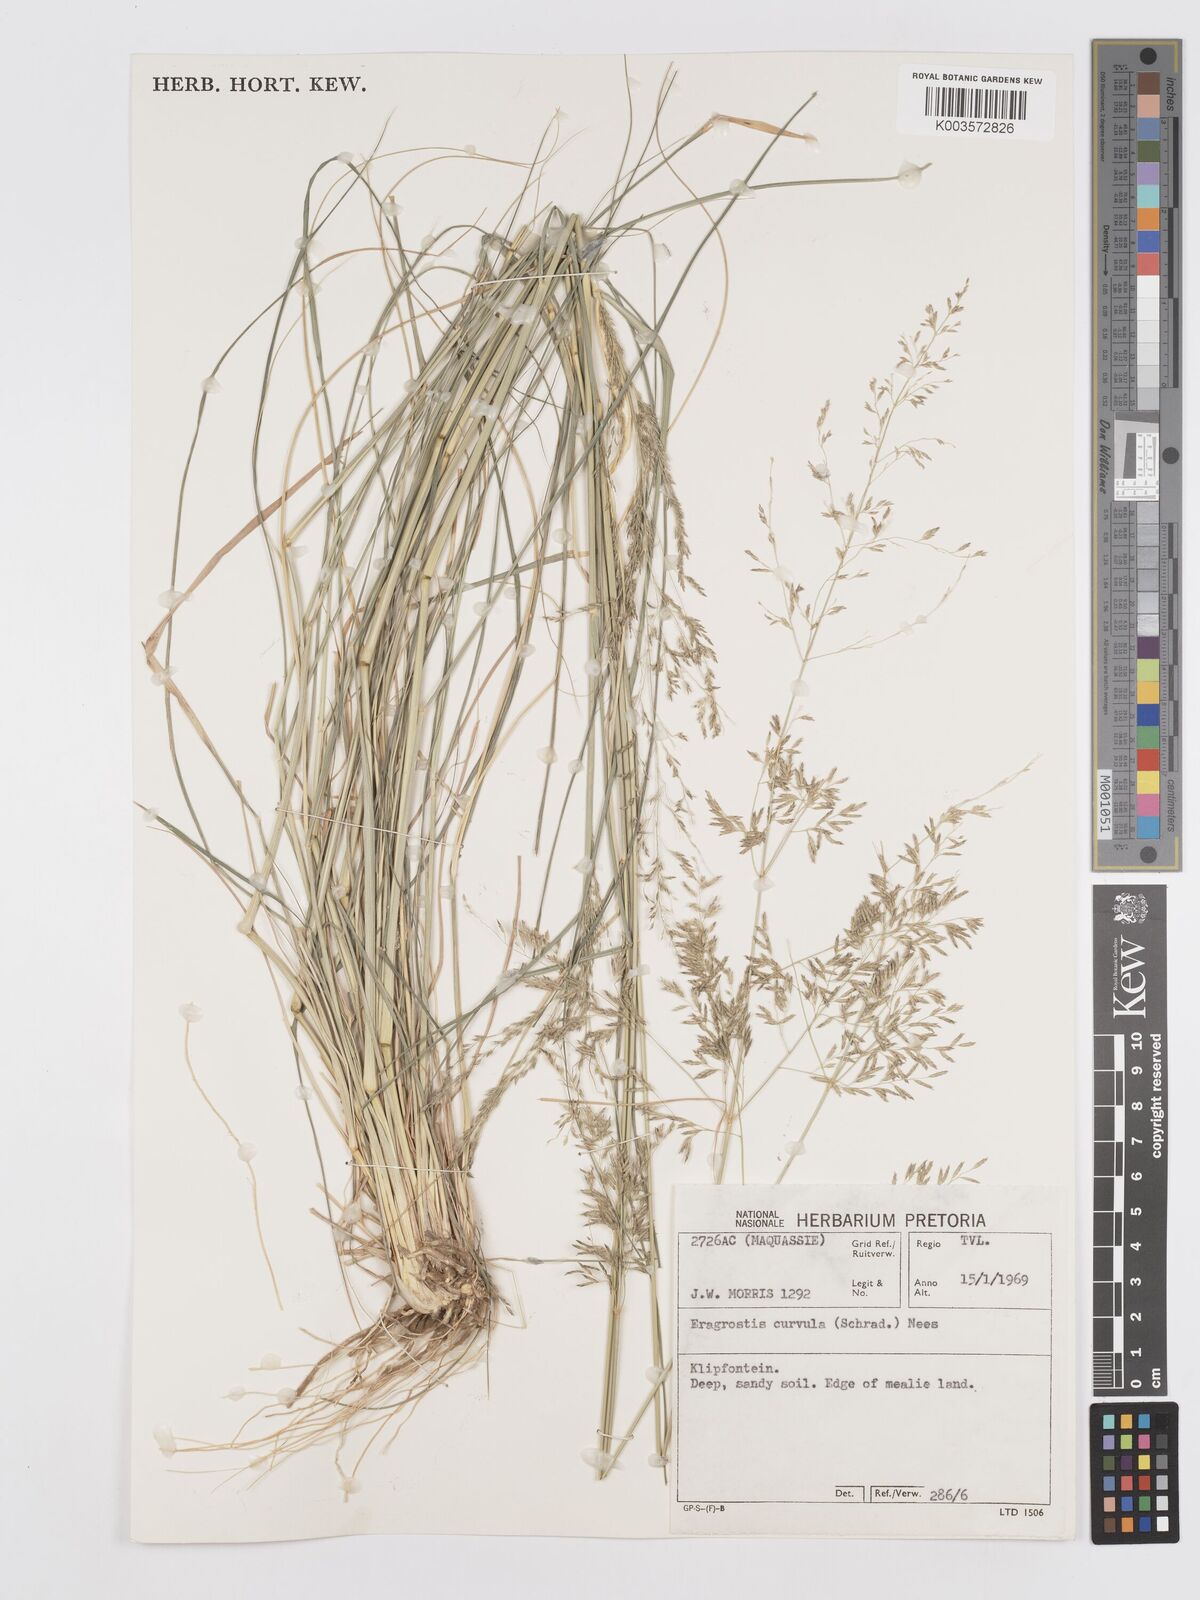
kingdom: Plantae
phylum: Tracheophyta
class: Liliopsida
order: Poales
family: Poaceae
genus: Eragrostis
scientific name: Eragrostis curvula
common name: African love-grass
